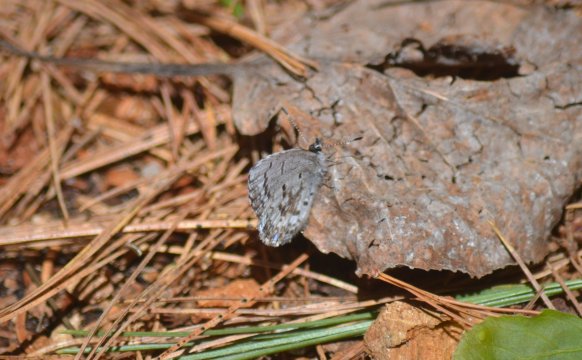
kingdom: Animalia
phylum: Arthropoda
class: Insecta
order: Lepidoptera
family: Lycaenidae
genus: Celastrina
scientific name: Celastrina lucia
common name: Northern Spring Azure
